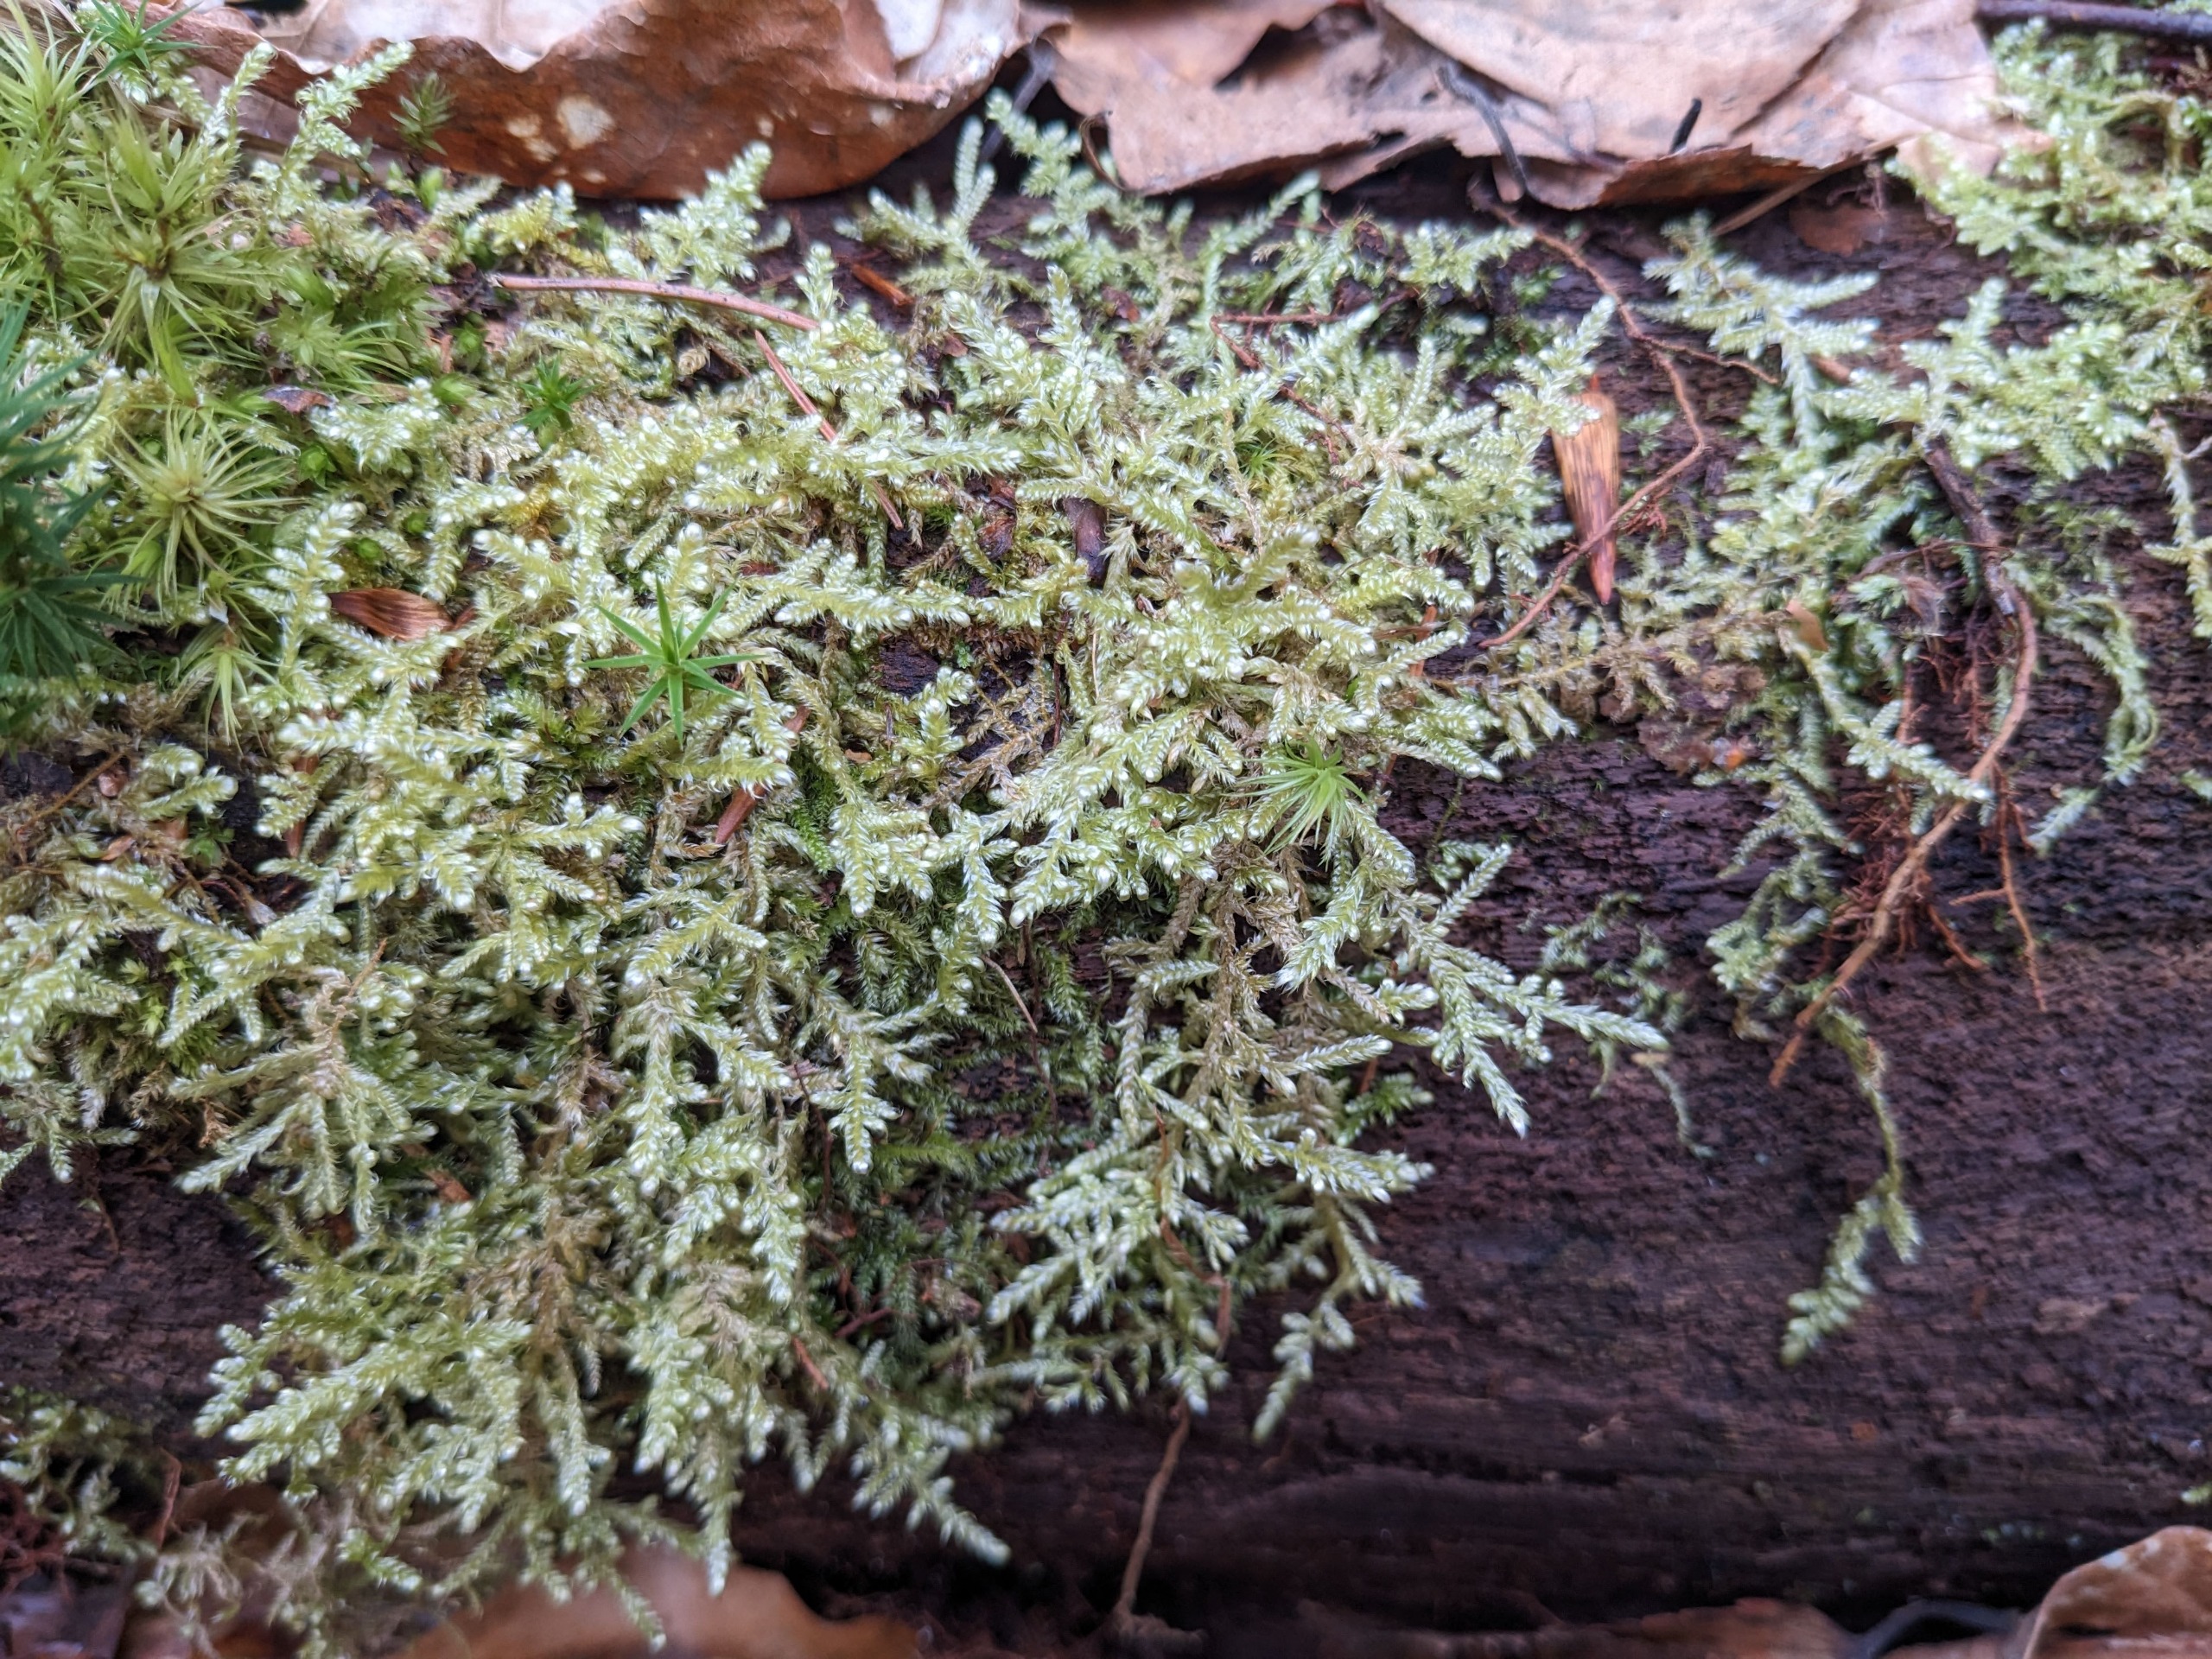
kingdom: Plantae
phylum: Bryophyta
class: Bryopsida
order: Hypnales
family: Hypnaceae
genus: Hypnum
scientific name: Hypnum jutlandicum
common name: Hede-cypresmos
